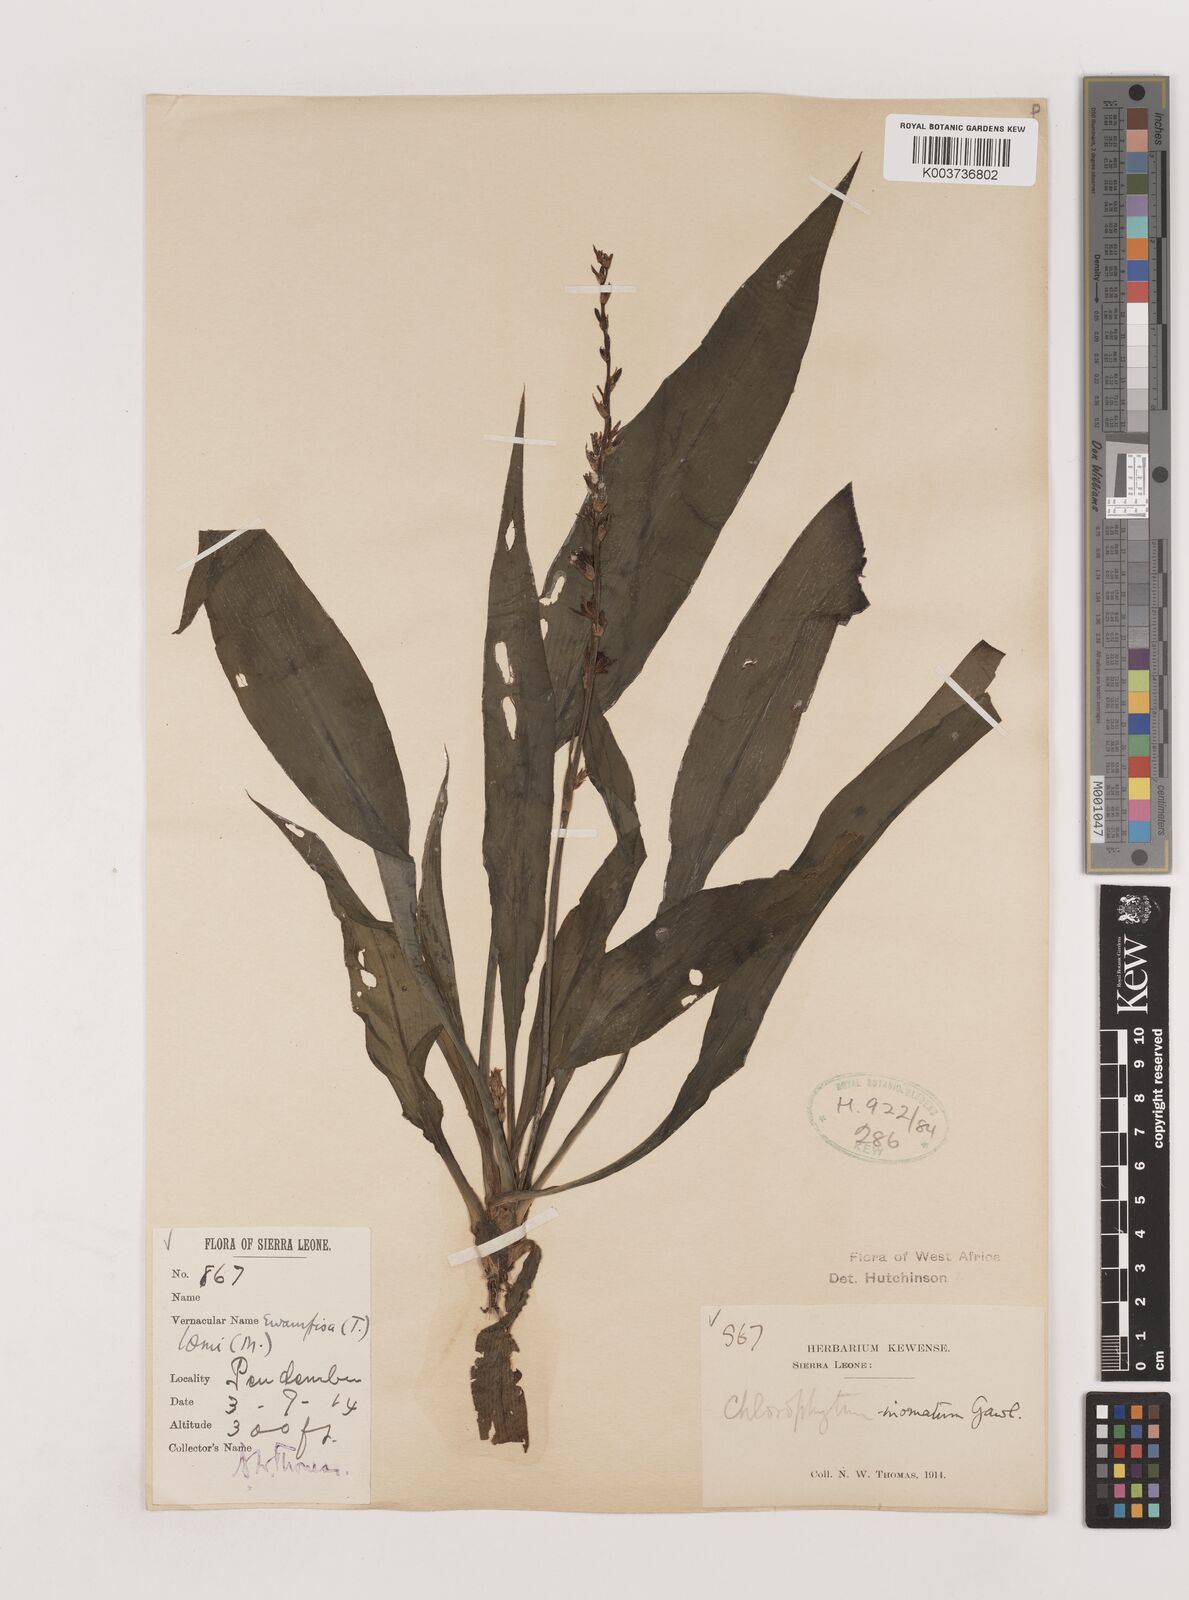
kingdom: Plantae
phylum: Tracheophyta
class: Liliopsida
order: Asparagales
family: Asparagaceae
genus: Chlorophytum
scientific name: Chlorophytum inornatum
